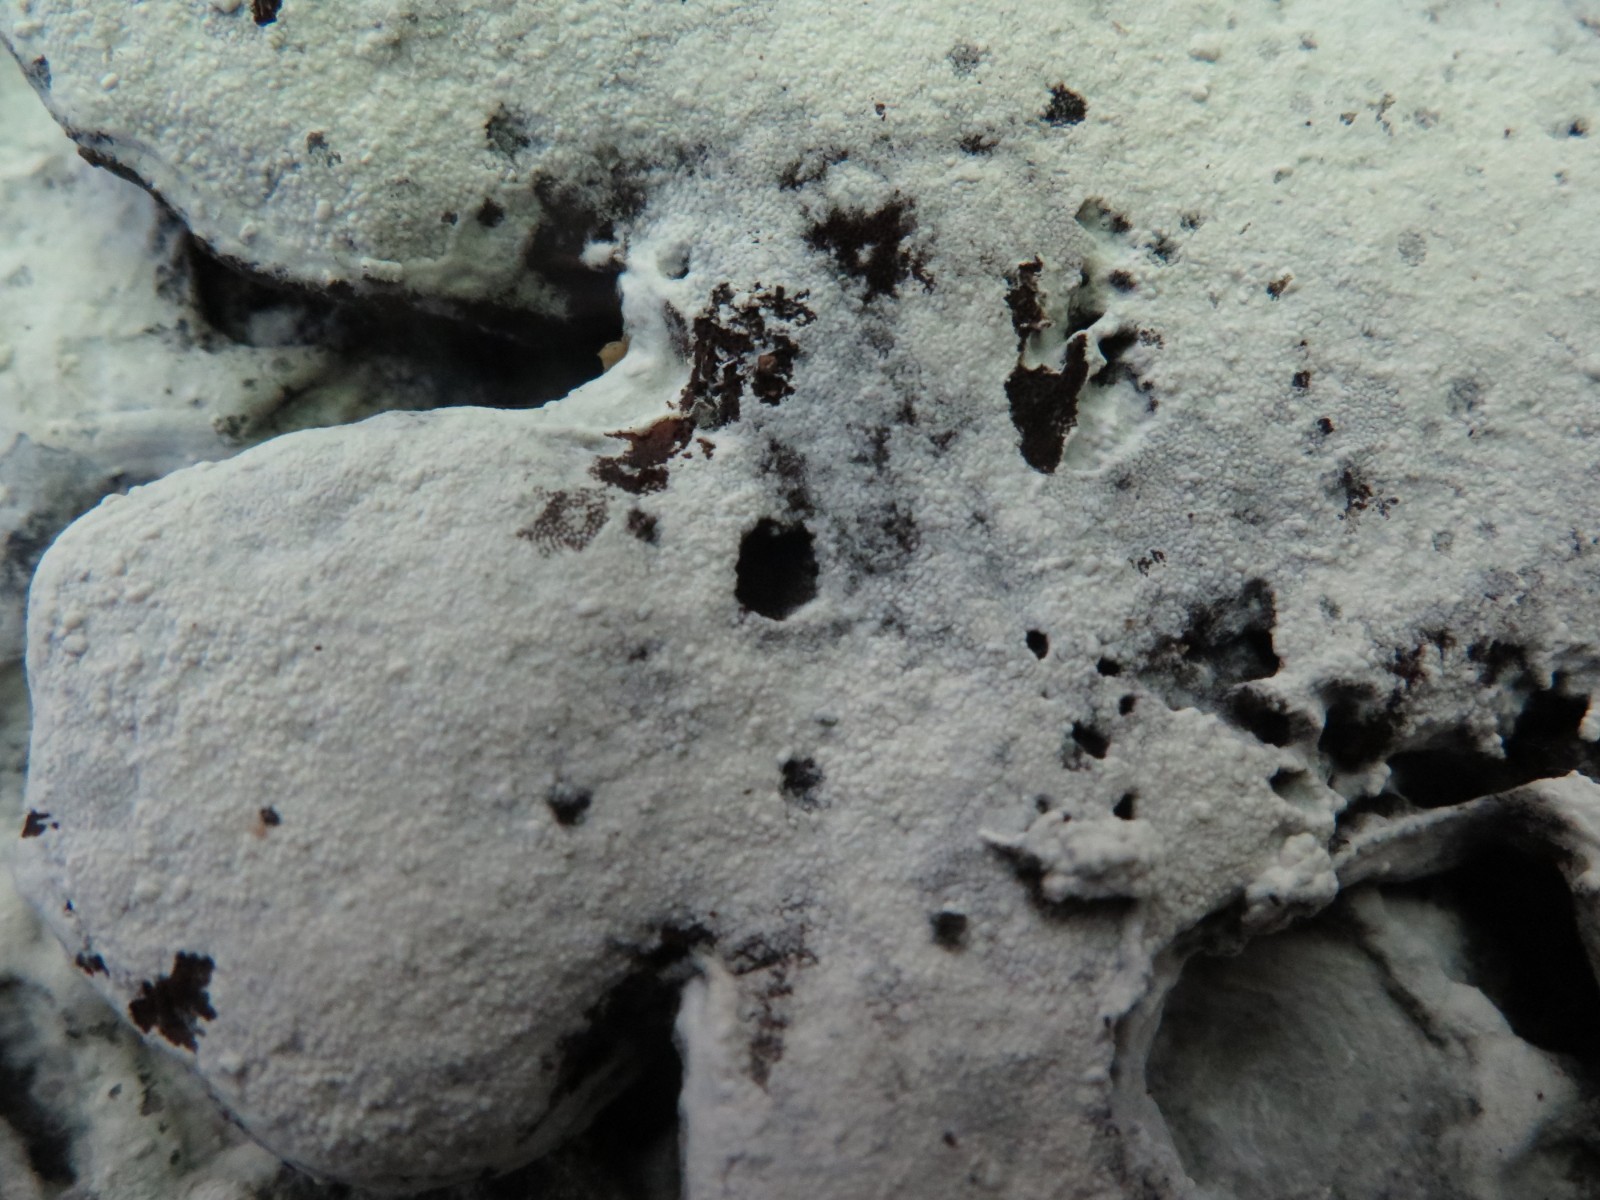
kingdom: Fungi
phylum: Basidiomycota
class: Agaricomycetes
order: Cantharellales
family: Hydnaceae
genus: Sistotrema
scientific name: Sistotrema brinkmannii
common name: bønnesporet kroneskorpe
